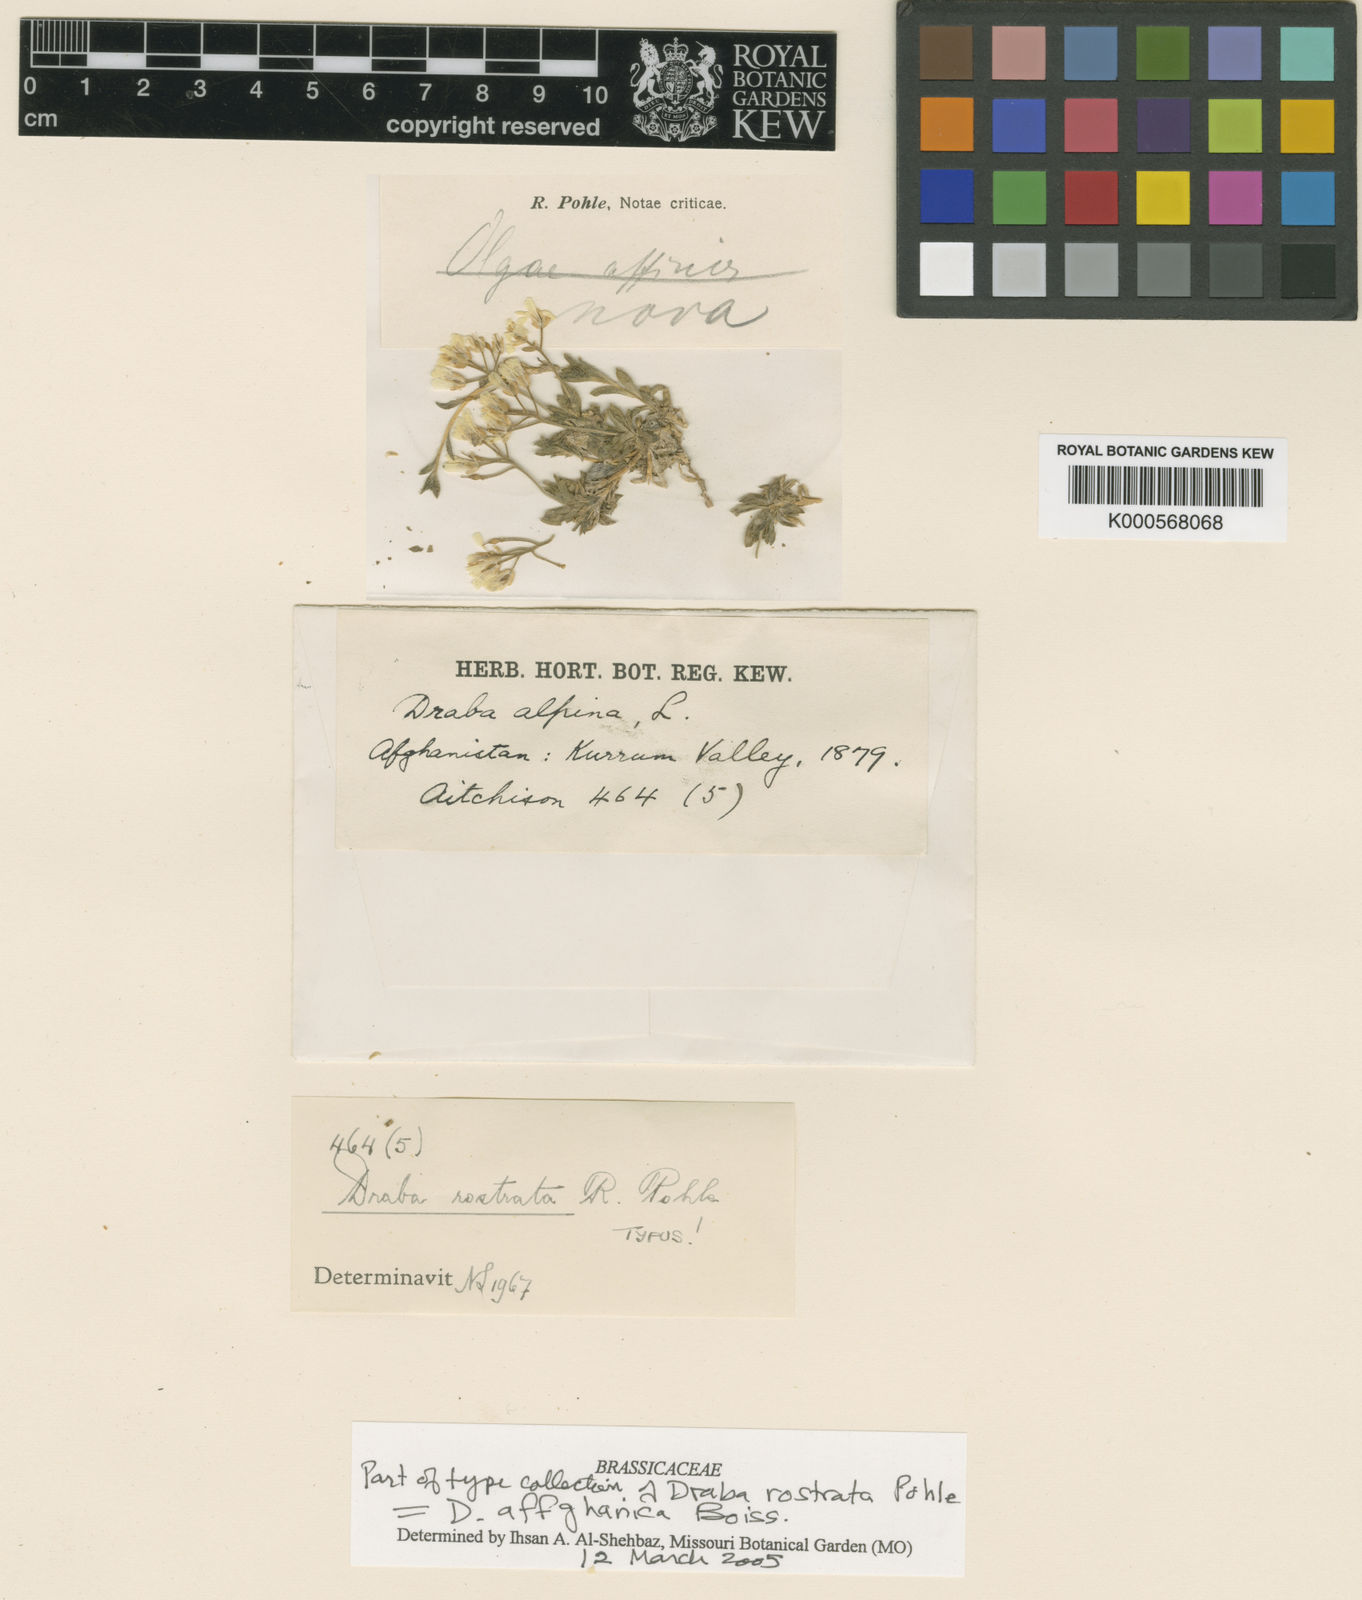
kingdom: Plantae
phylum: Tracheophyta
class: Magnoliopsida
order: Brassicales
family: Brassicaceae
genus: Draba
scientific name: Draba affghanica
